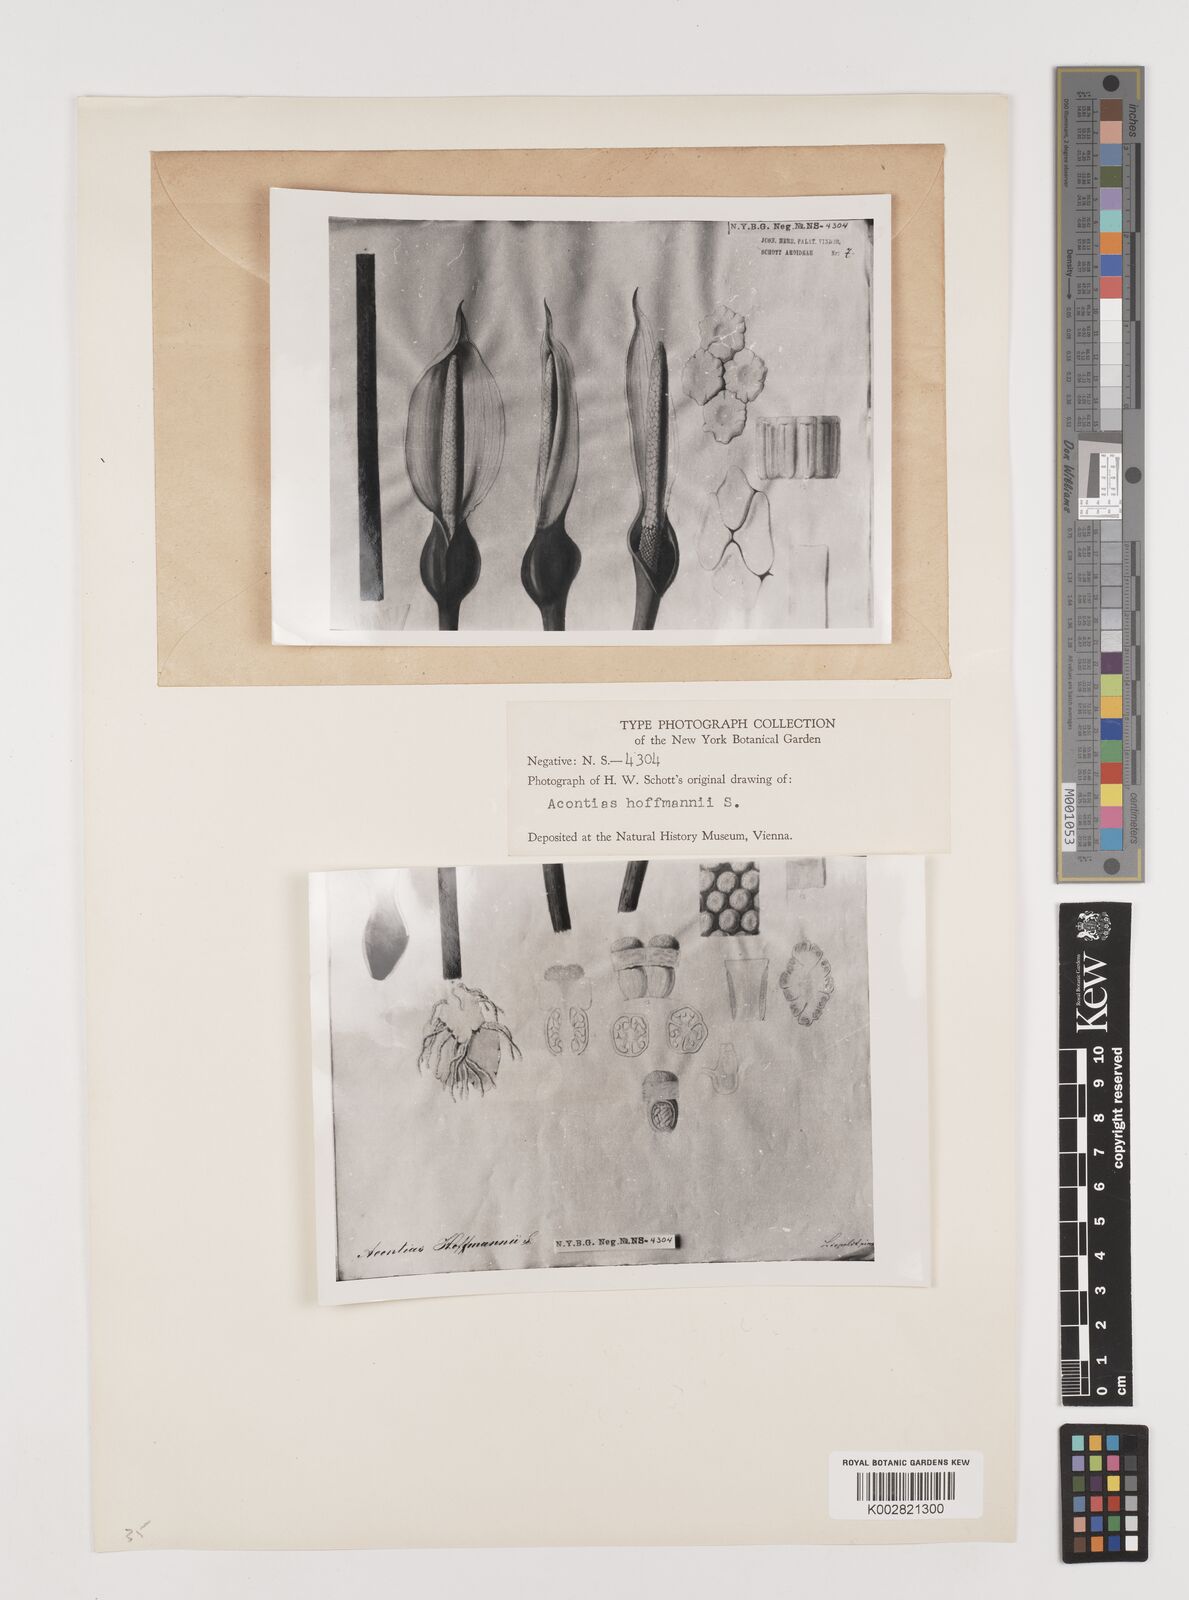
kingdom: Plantae
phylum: Tracheophyta
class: Liliopsida
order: Alismatales
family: Araceae
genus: Xanthosoma
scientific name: Xanthosoma wendlandii
